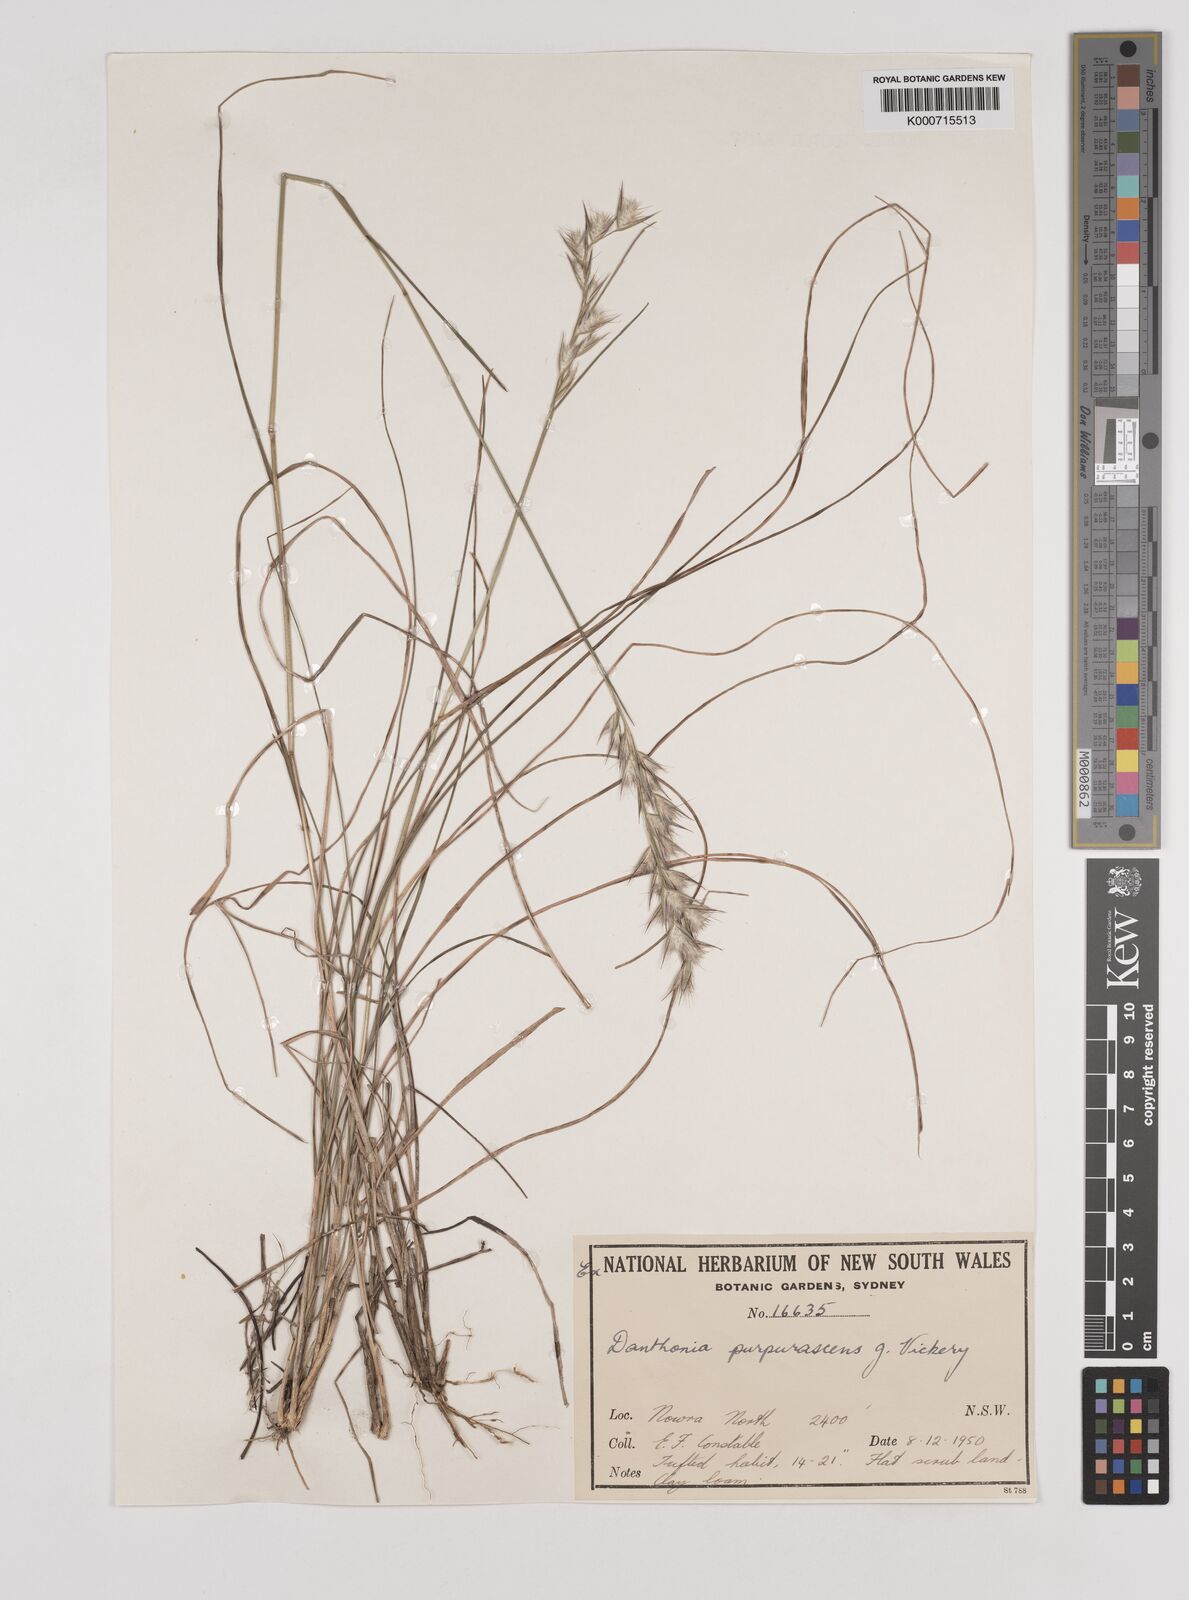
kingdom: Plantae
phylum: Tracheophyta
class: Liliopsida
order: Poales
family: Poaceae
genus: Rytidosperma
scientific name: Rytidosperma tenuius
